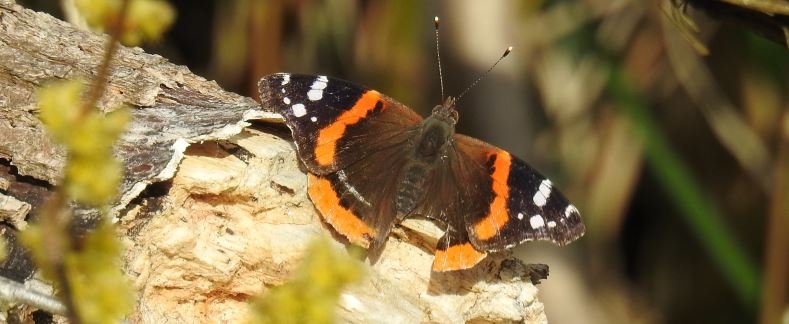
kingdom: Animalia
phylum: Arthropoda
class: Insecta
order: Lepidoptera
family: Nymphalidae
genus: Vanessa
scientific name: Vanessa atalanta
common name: Red Admiral
